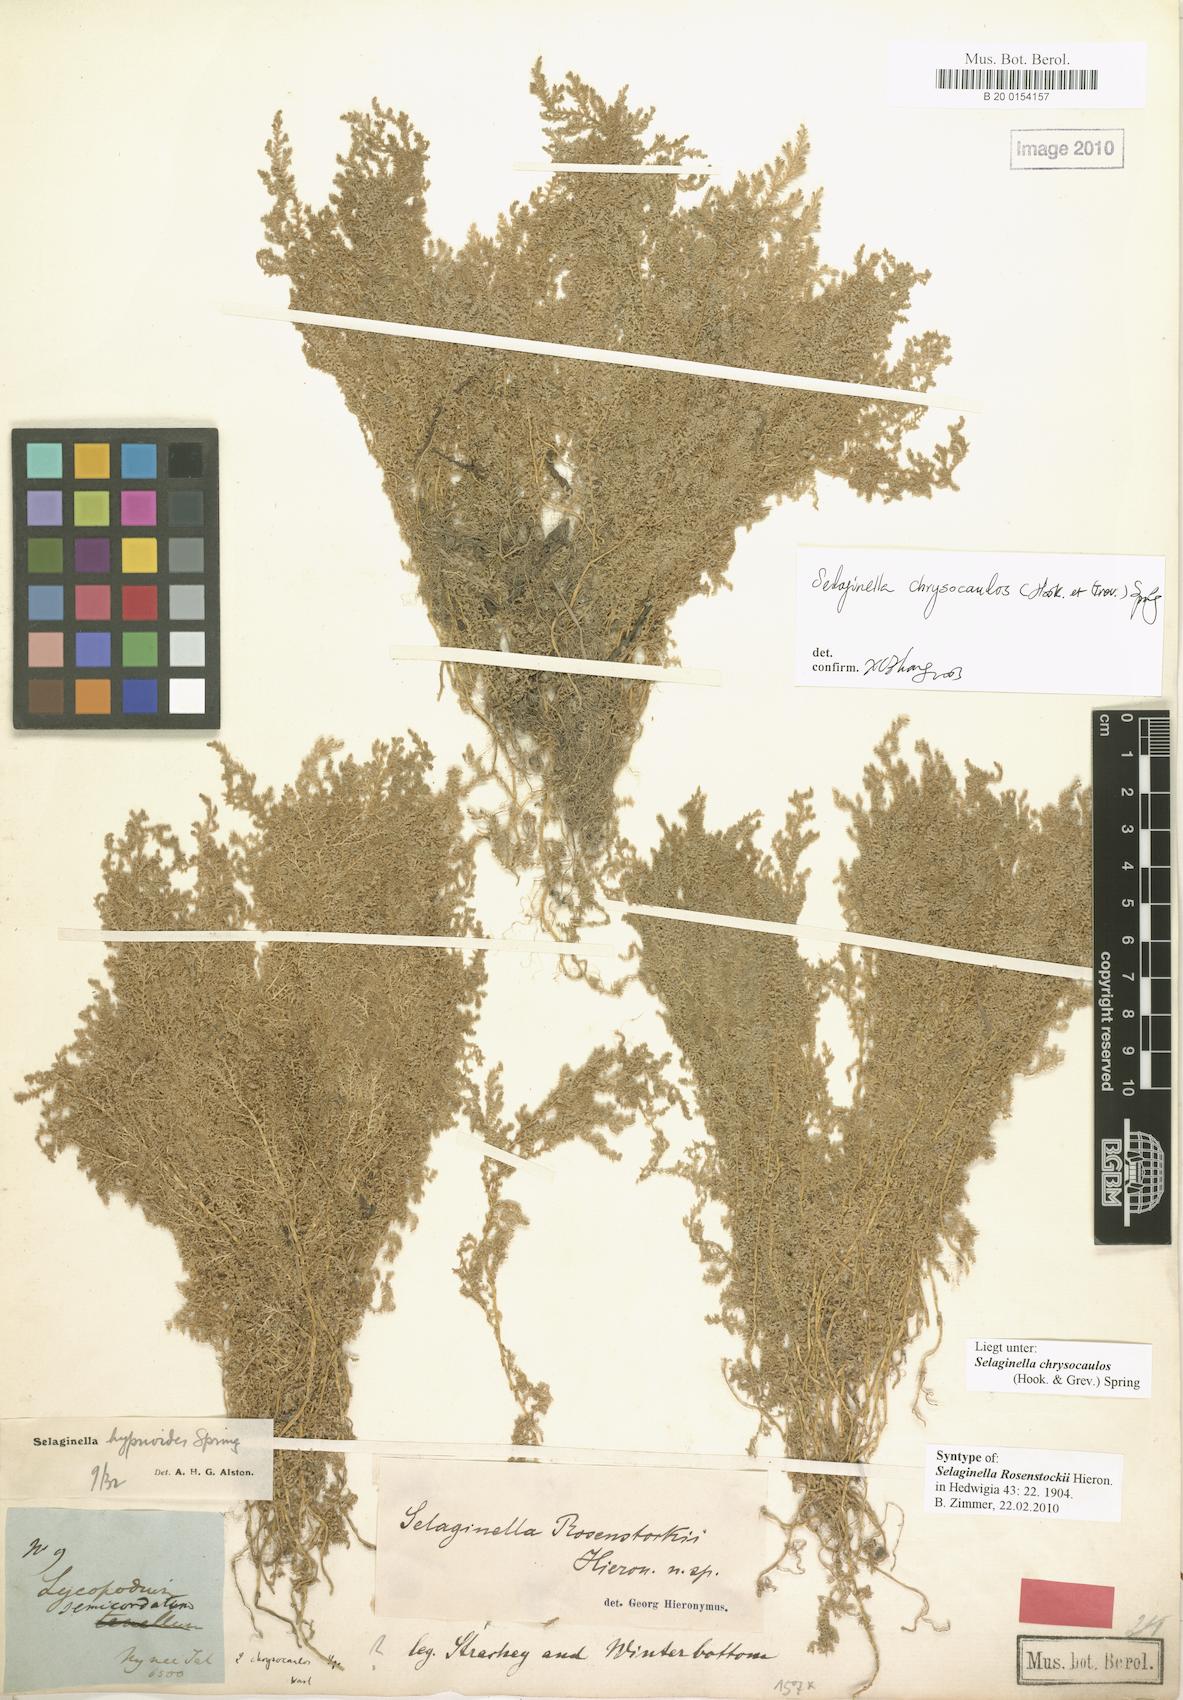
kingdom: Plantae
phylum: Tracheophyta
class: Lycopodiopsida
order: Selaginellales
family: Selaginellaceae
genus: Selaginella
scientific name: Selaginella chrysocaulos
